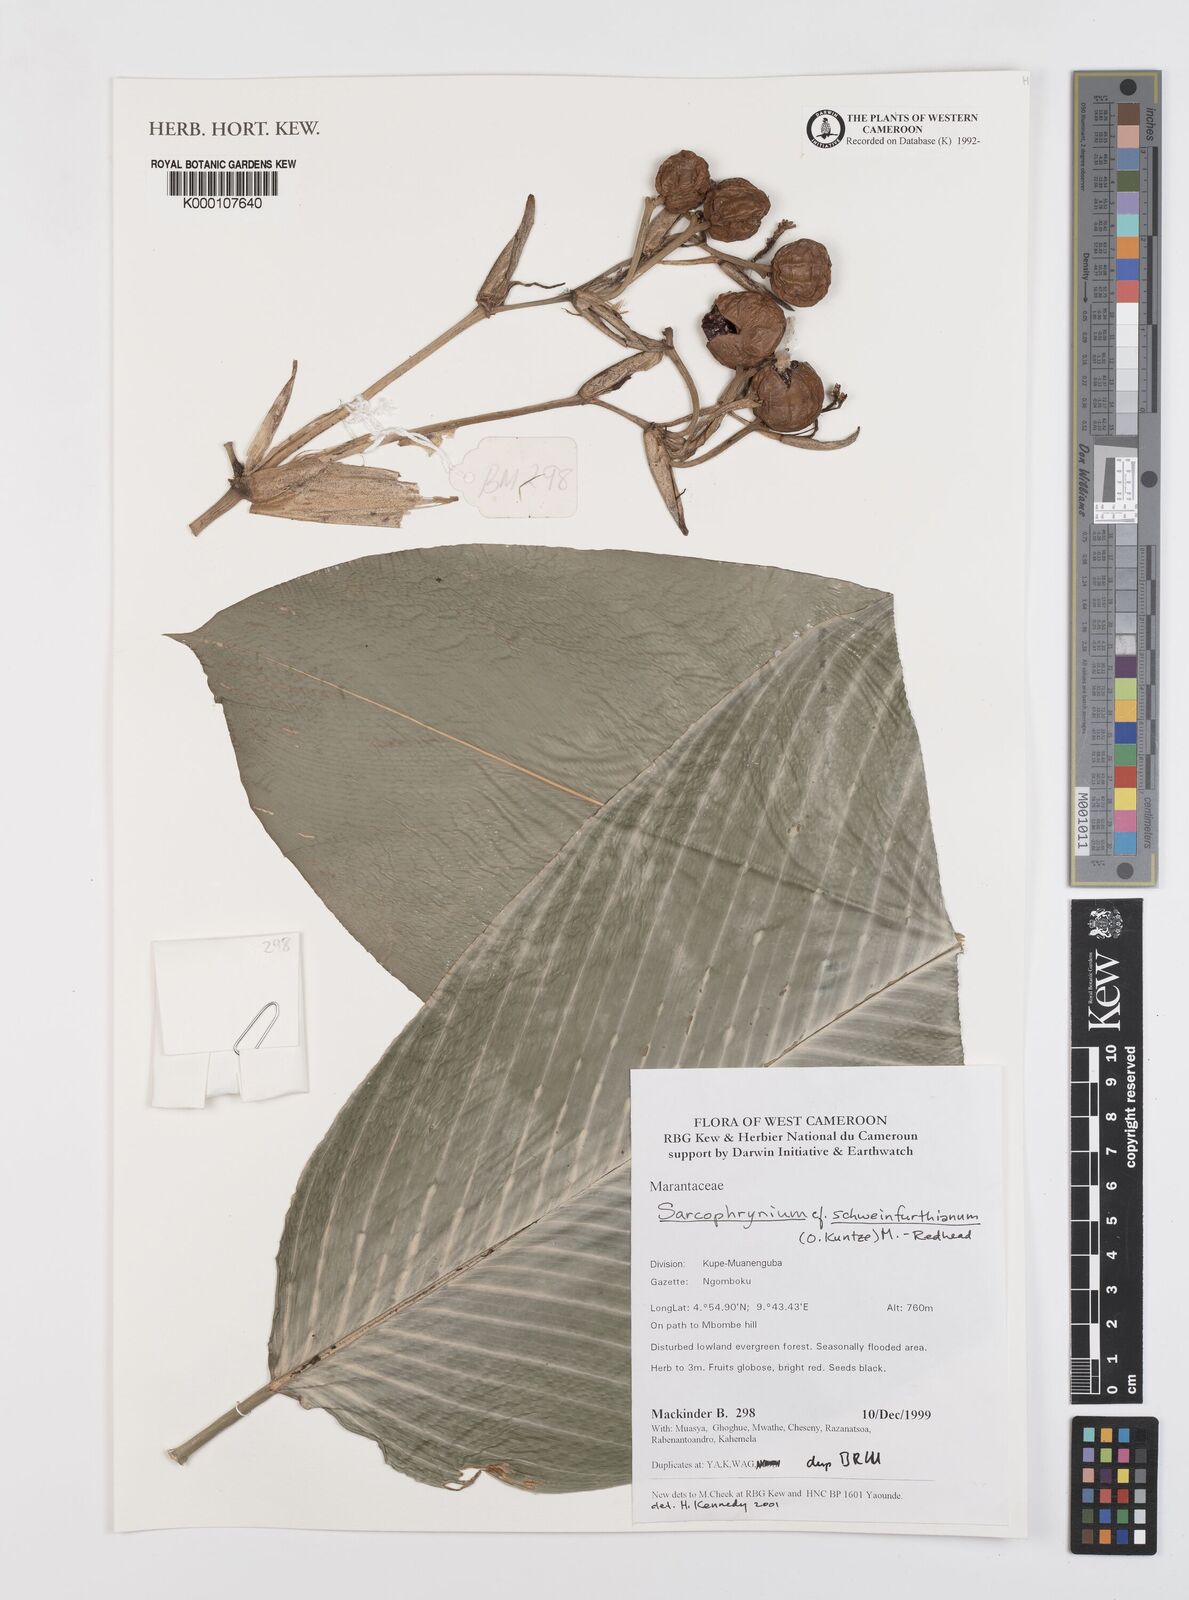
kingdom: Plantae
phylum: Tracheophyta
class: Liliopsida
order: Zingiberales
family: Marantaceae
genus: Sarcophrynium
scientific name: Sarcophrynium schweinfurthianum
